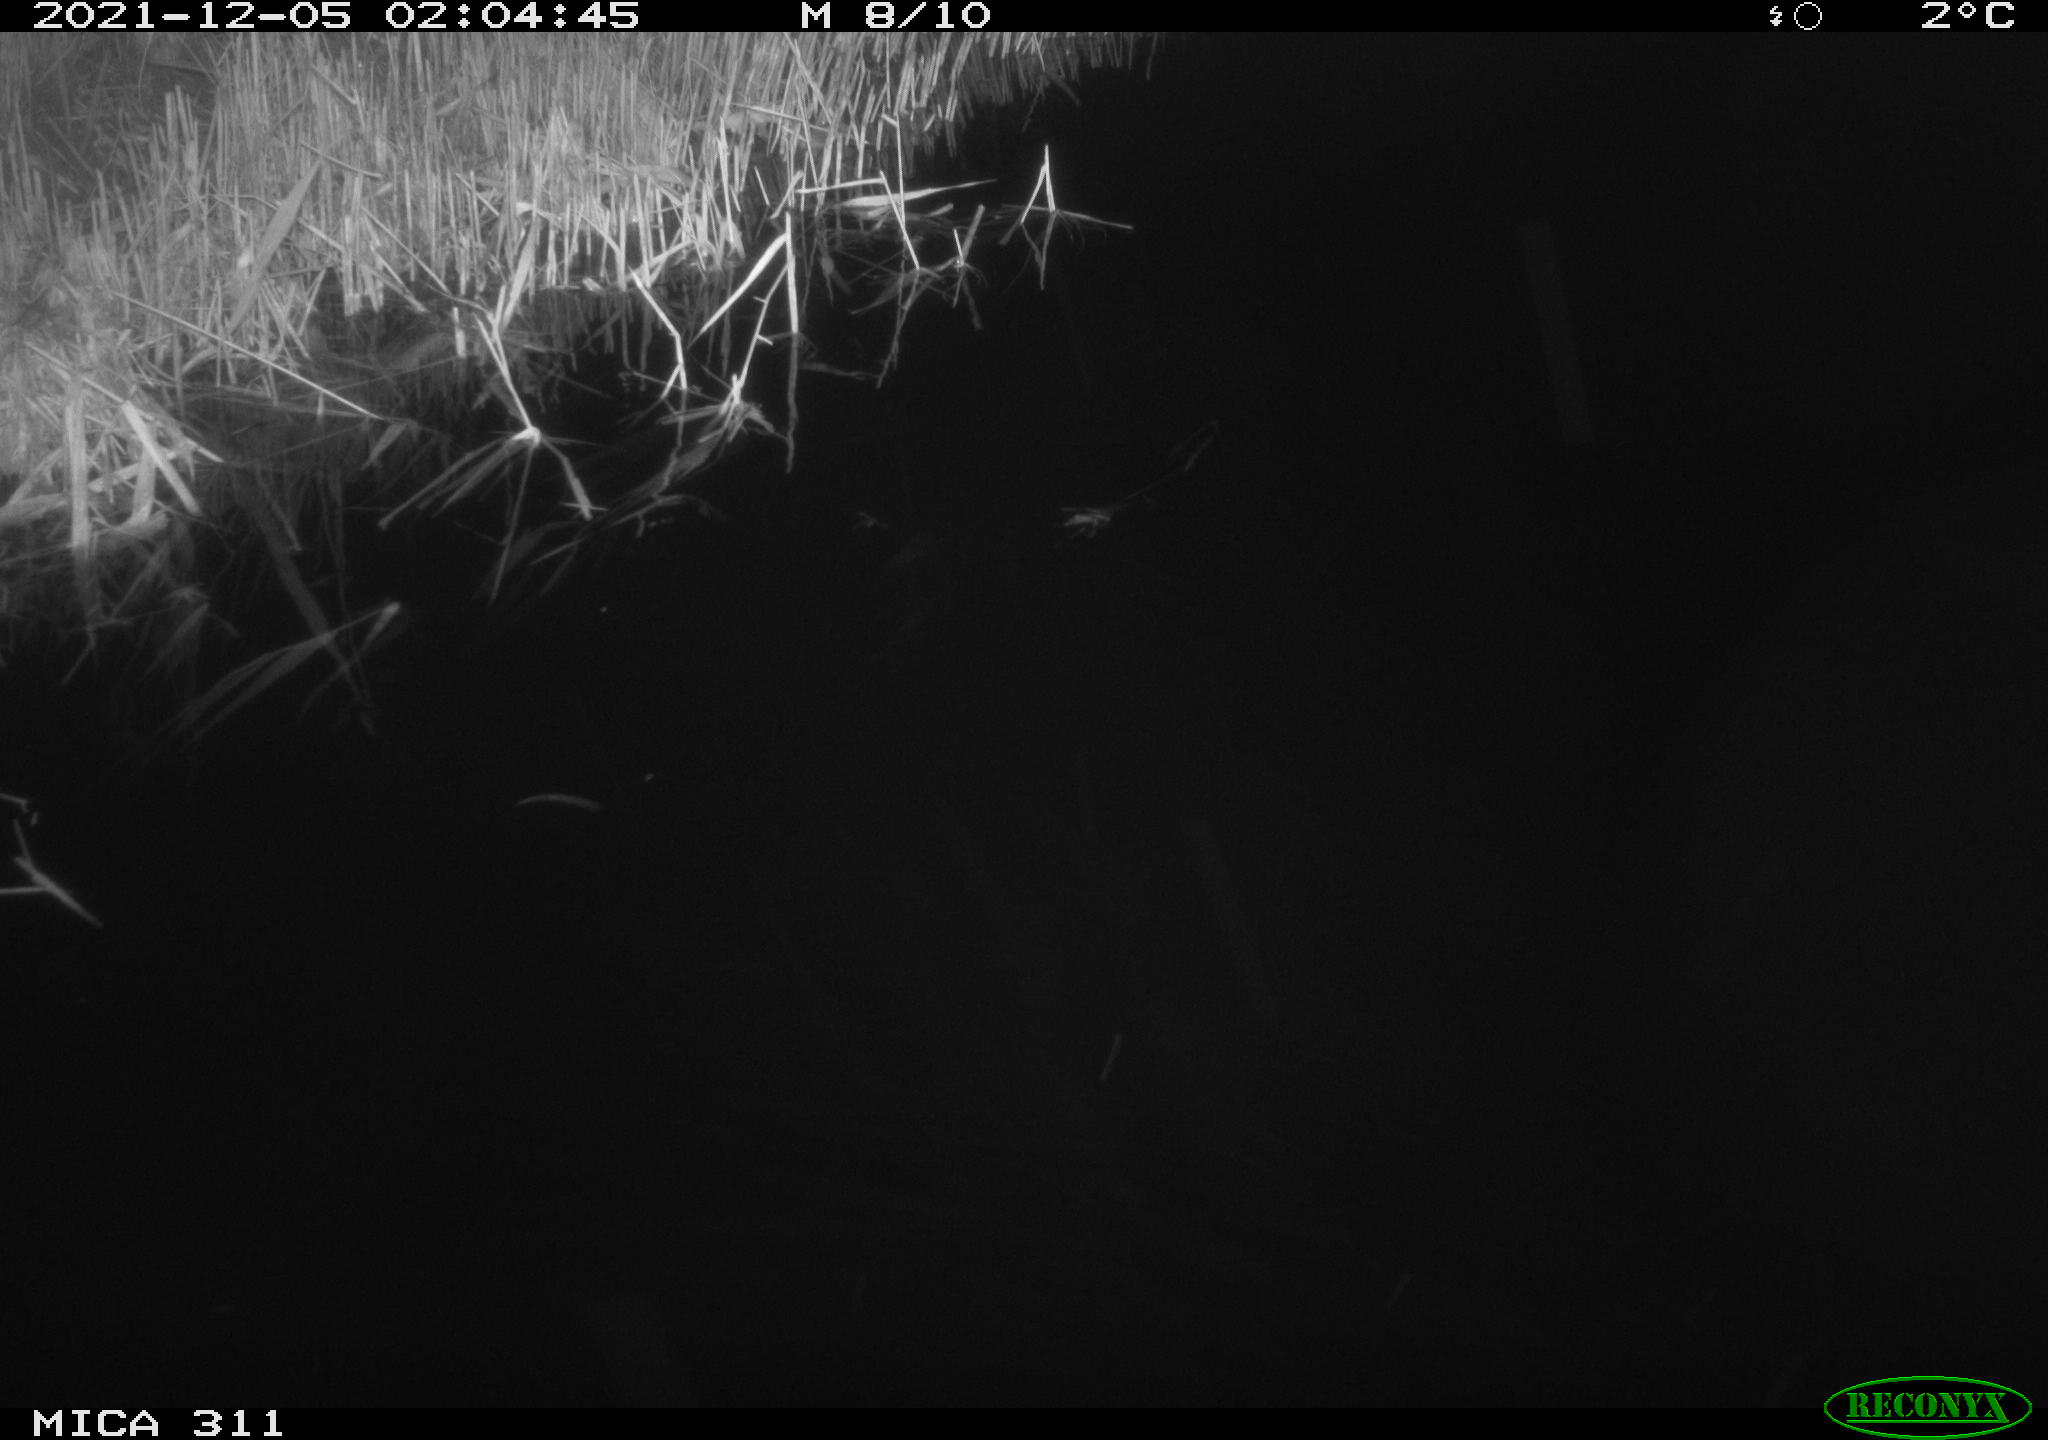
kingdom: Animalia
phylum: Chordata
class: Mammalia
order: Rodentia
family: Muridae
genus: Rattus
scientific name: Rattus norvegicus
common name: Brown rat
